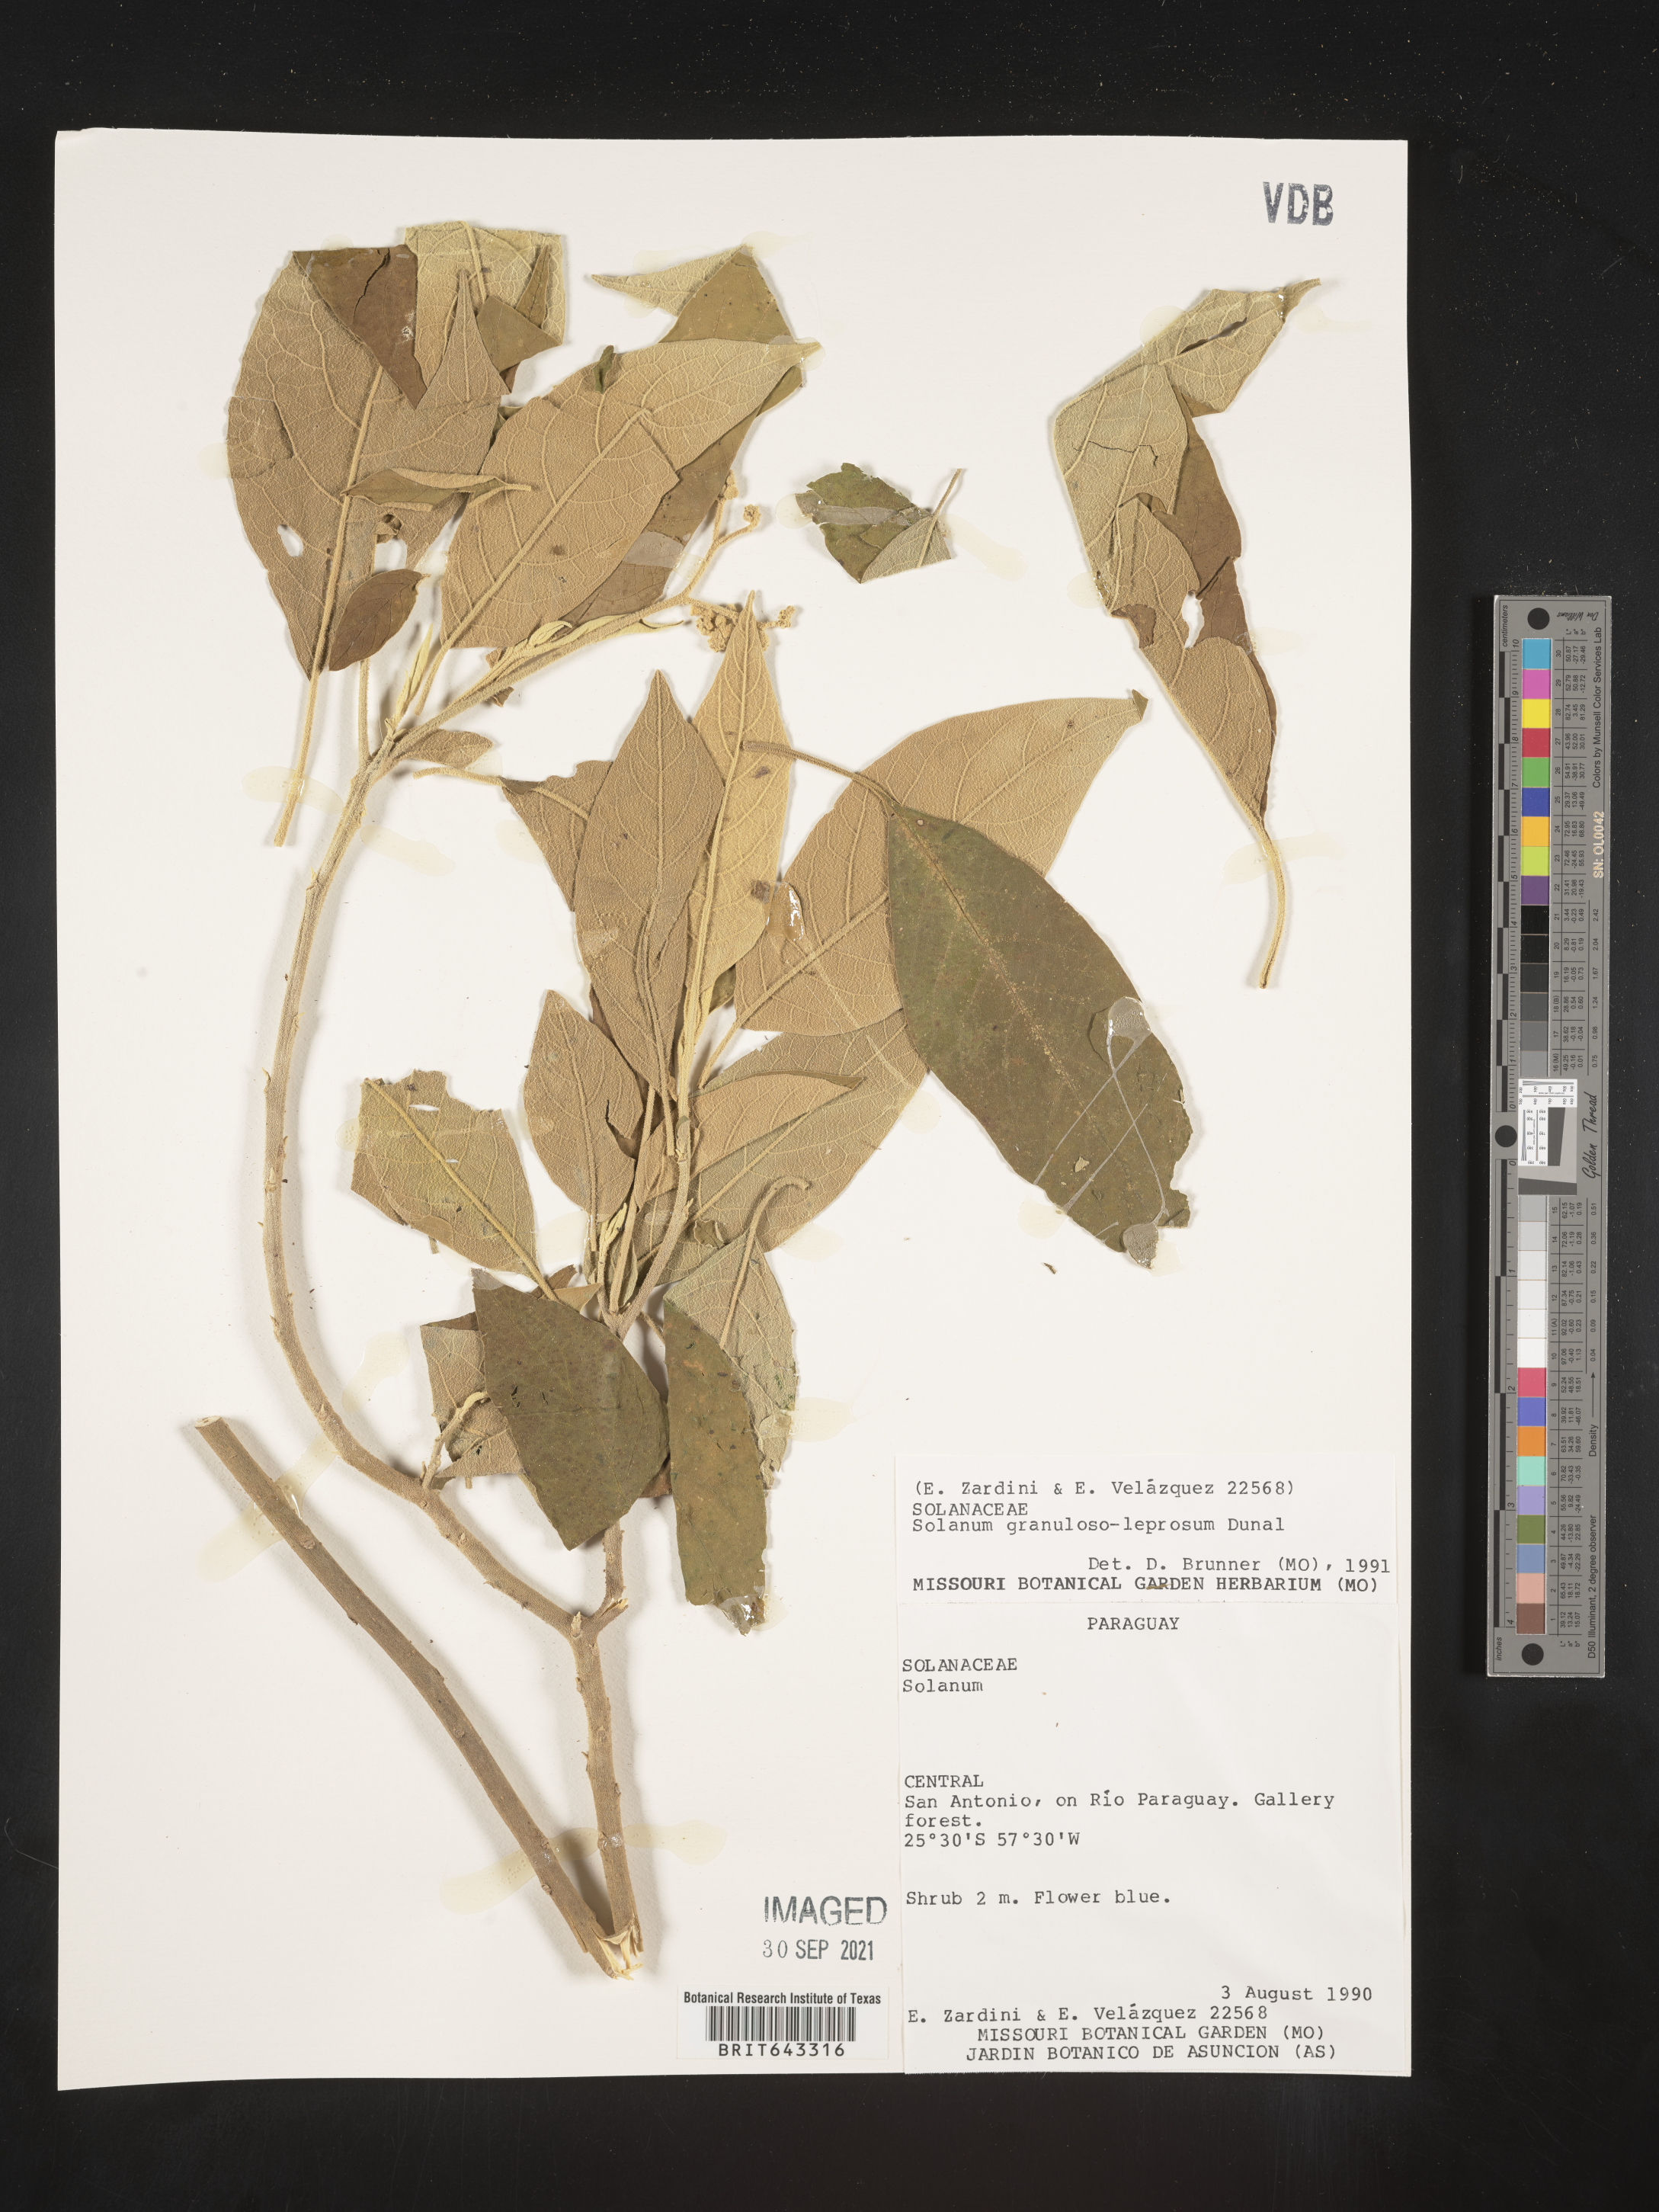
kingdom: Plantae
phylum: Tracheophyta
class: Magnoliopsida
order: Solanales
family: Solanaceae
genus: Solanum
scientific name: Solanum
